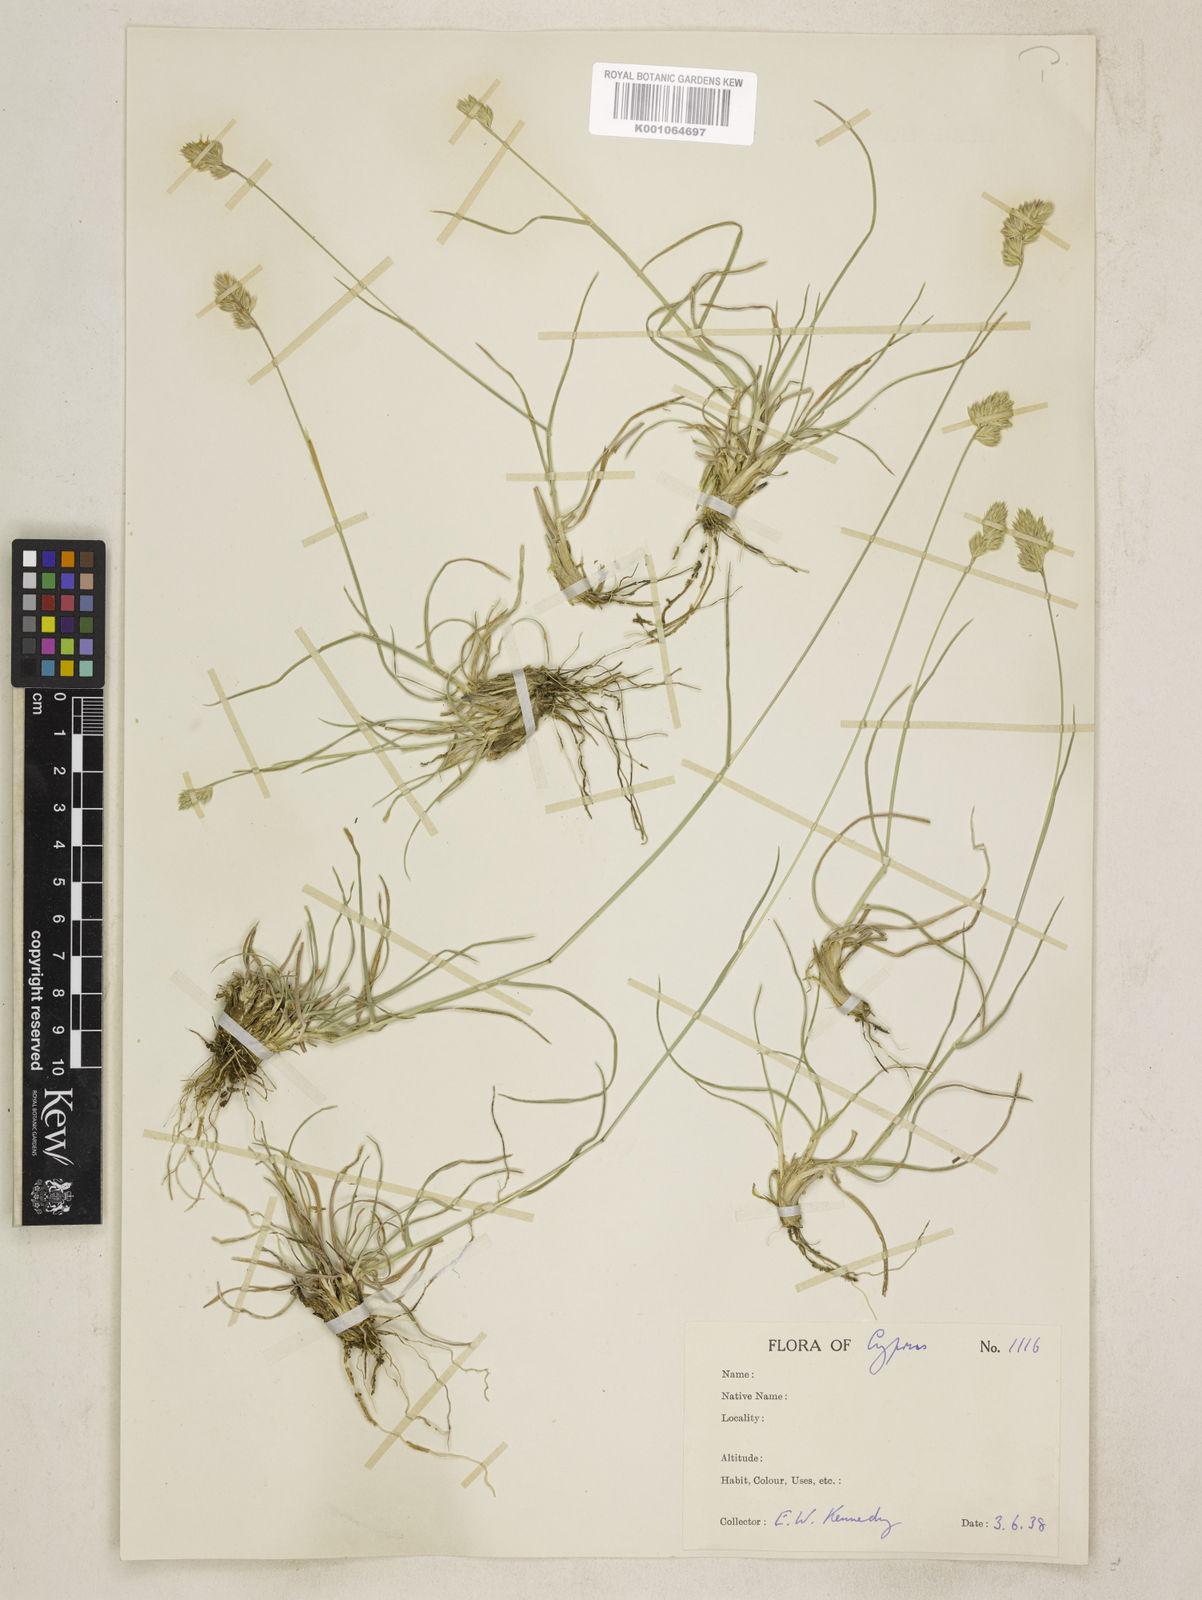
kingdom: Plantae
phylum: Tracheophyta
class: Liliopsida
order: Poales
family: Poaceae
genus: Dactylis
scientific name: Dactylis glomerata
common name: Orchardgrass
